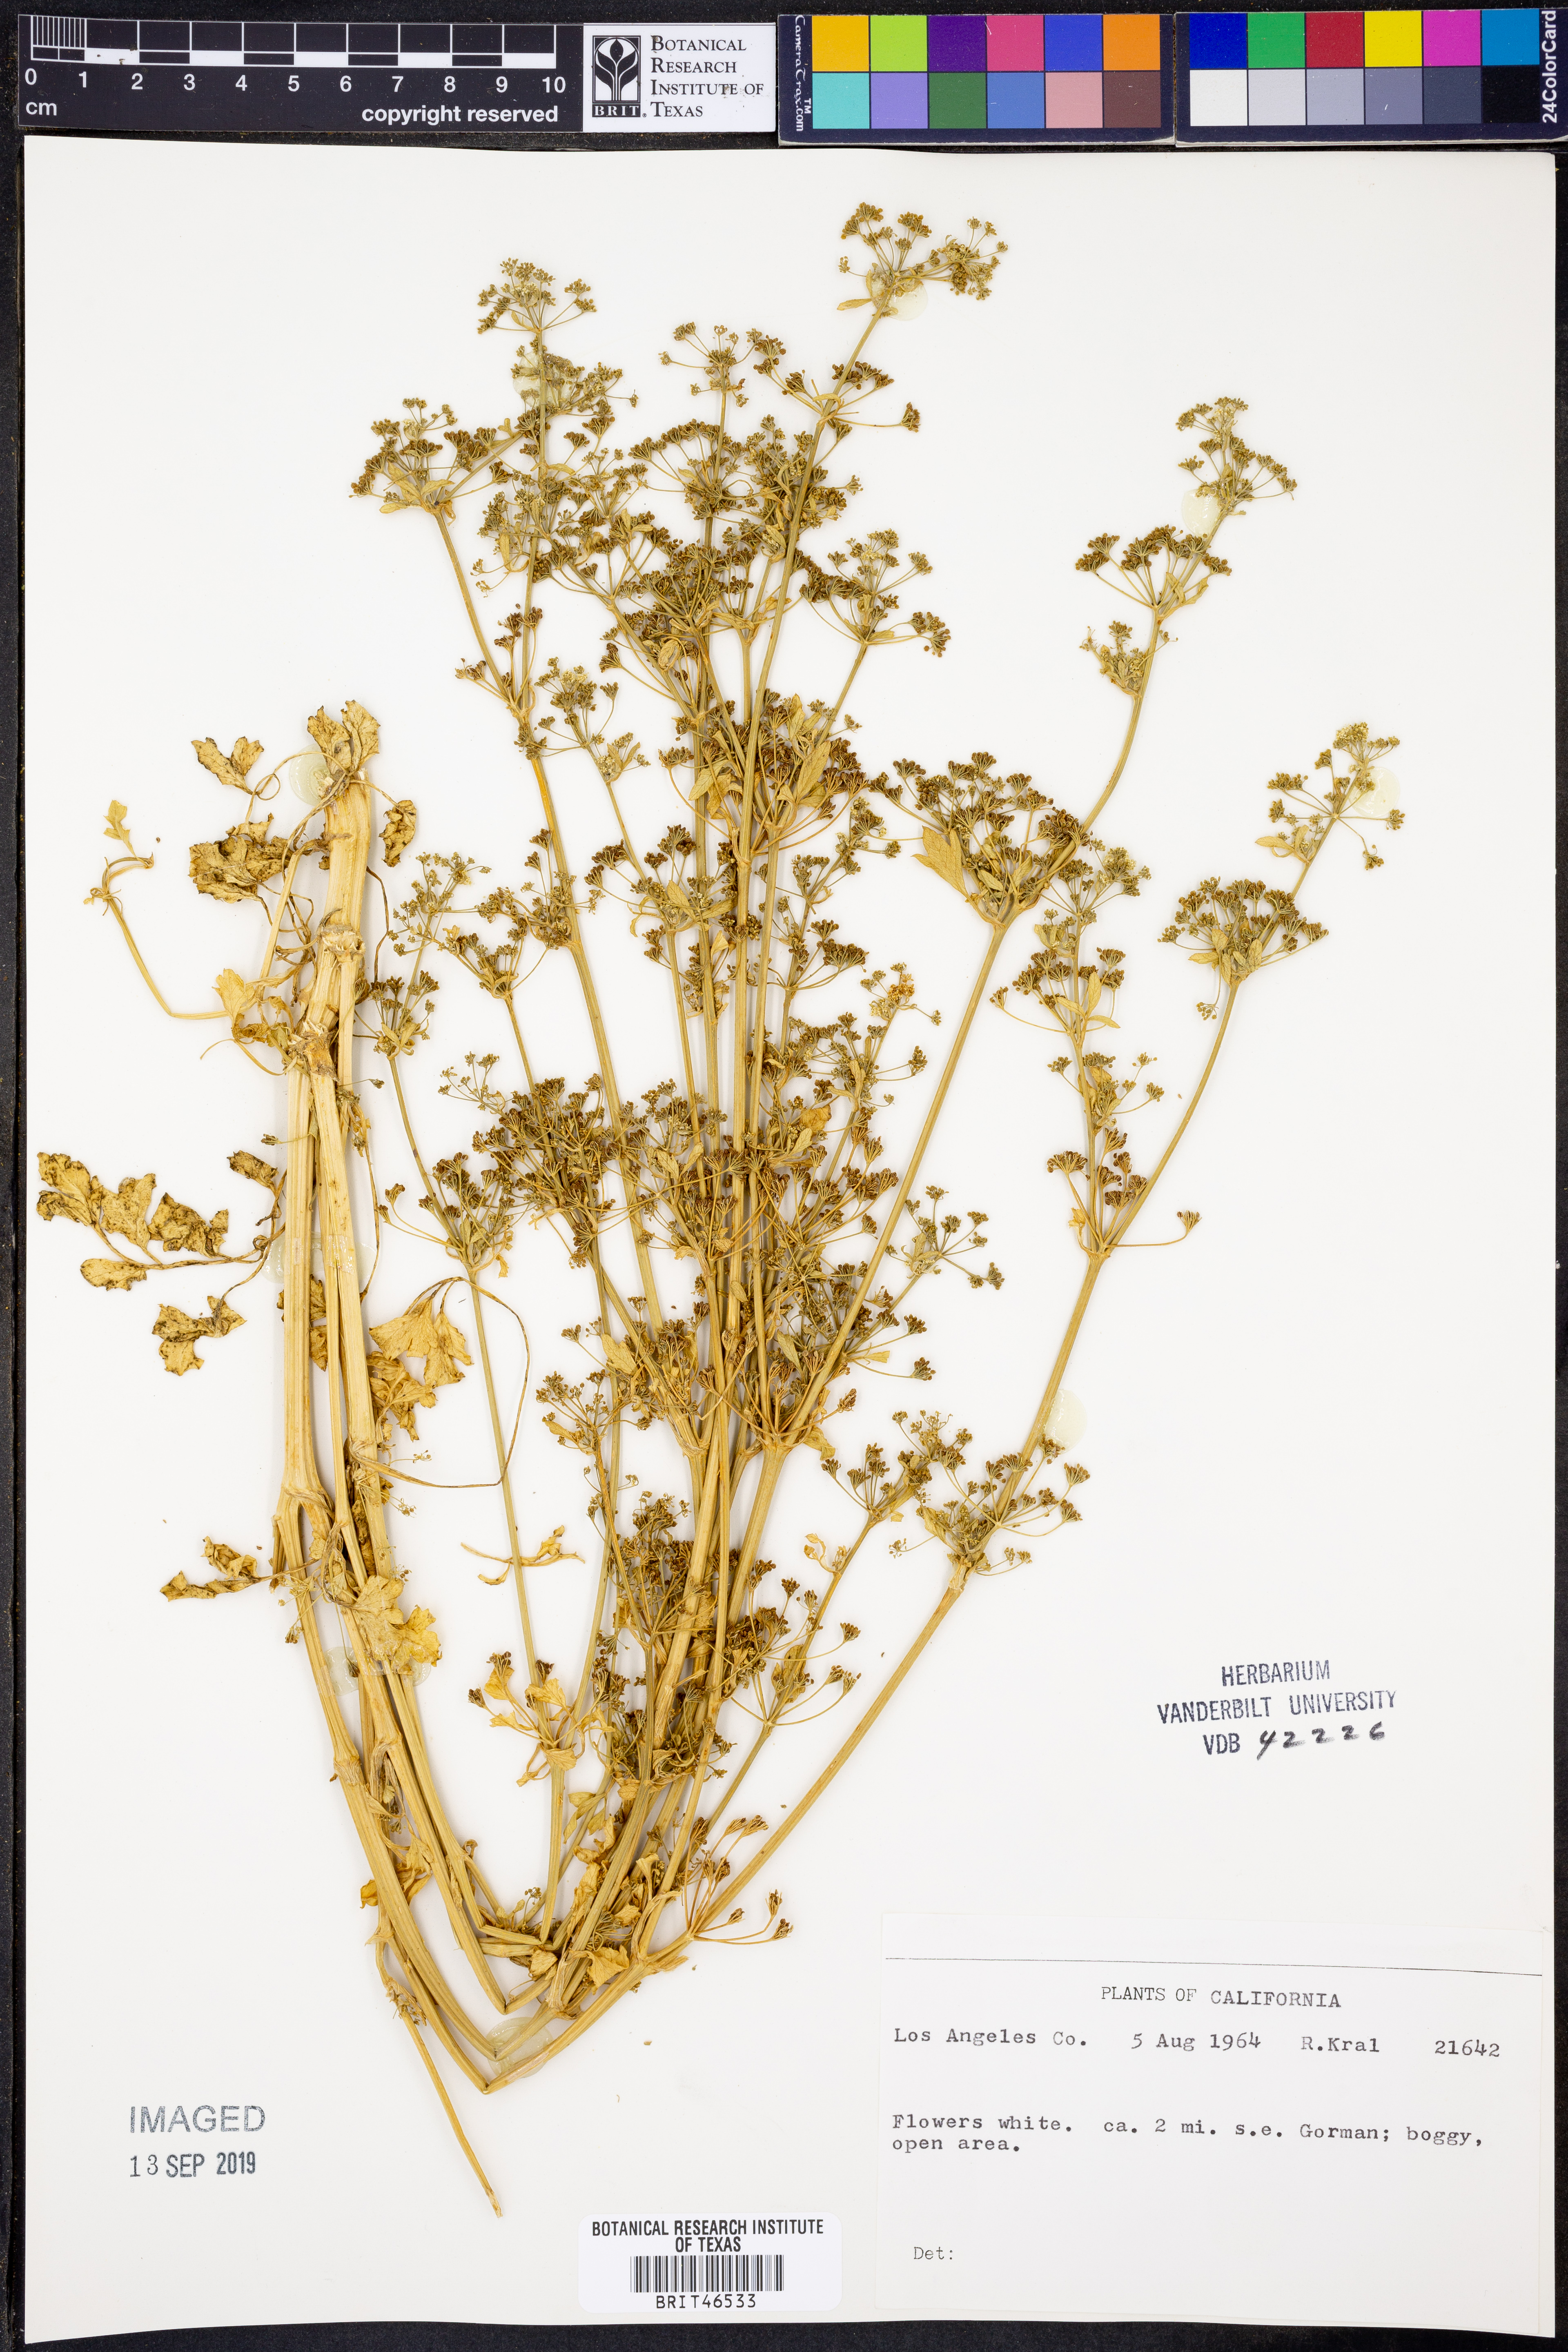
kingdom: Plantae
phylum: Tracheophyta
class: Magnoliopsida
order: Apiales
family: Apiaceae
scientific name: Apiaceae
